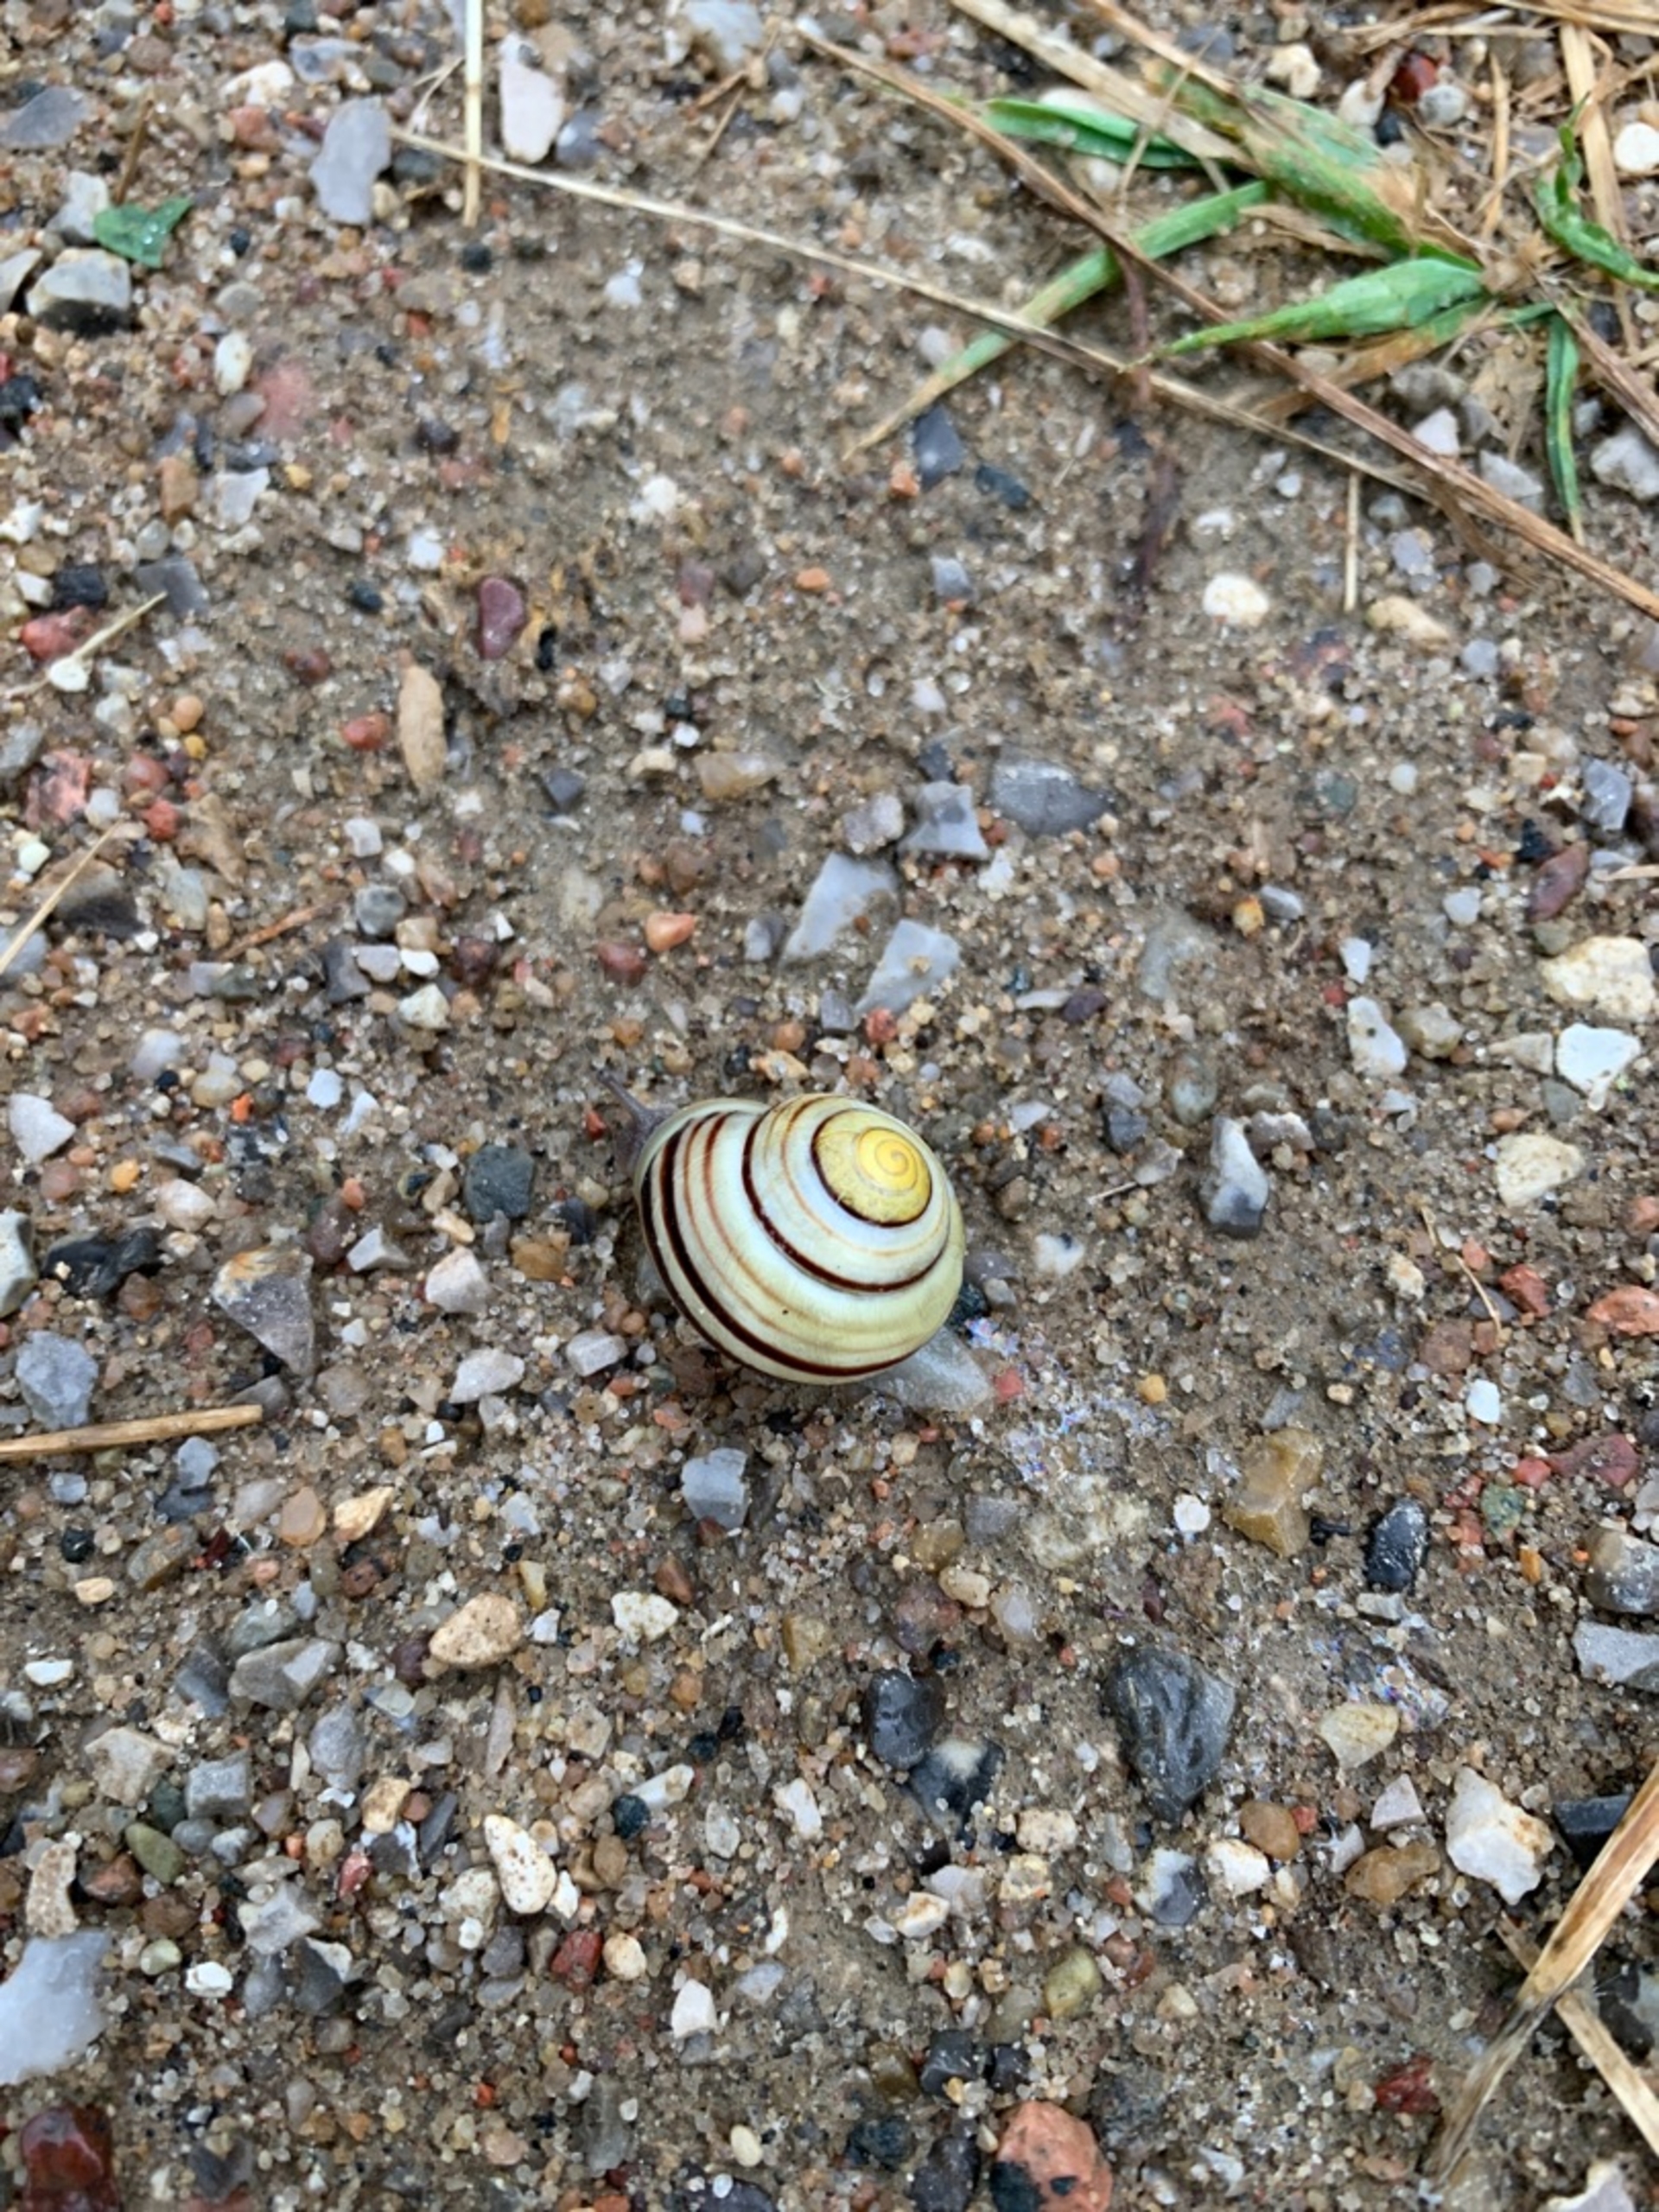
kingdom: Animalia
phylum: Mollusca
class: Gastropoda
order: Stylommatophora
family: Helicidae
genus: Cepaea
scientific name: Cepaea hortensis
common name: Havesnegl
